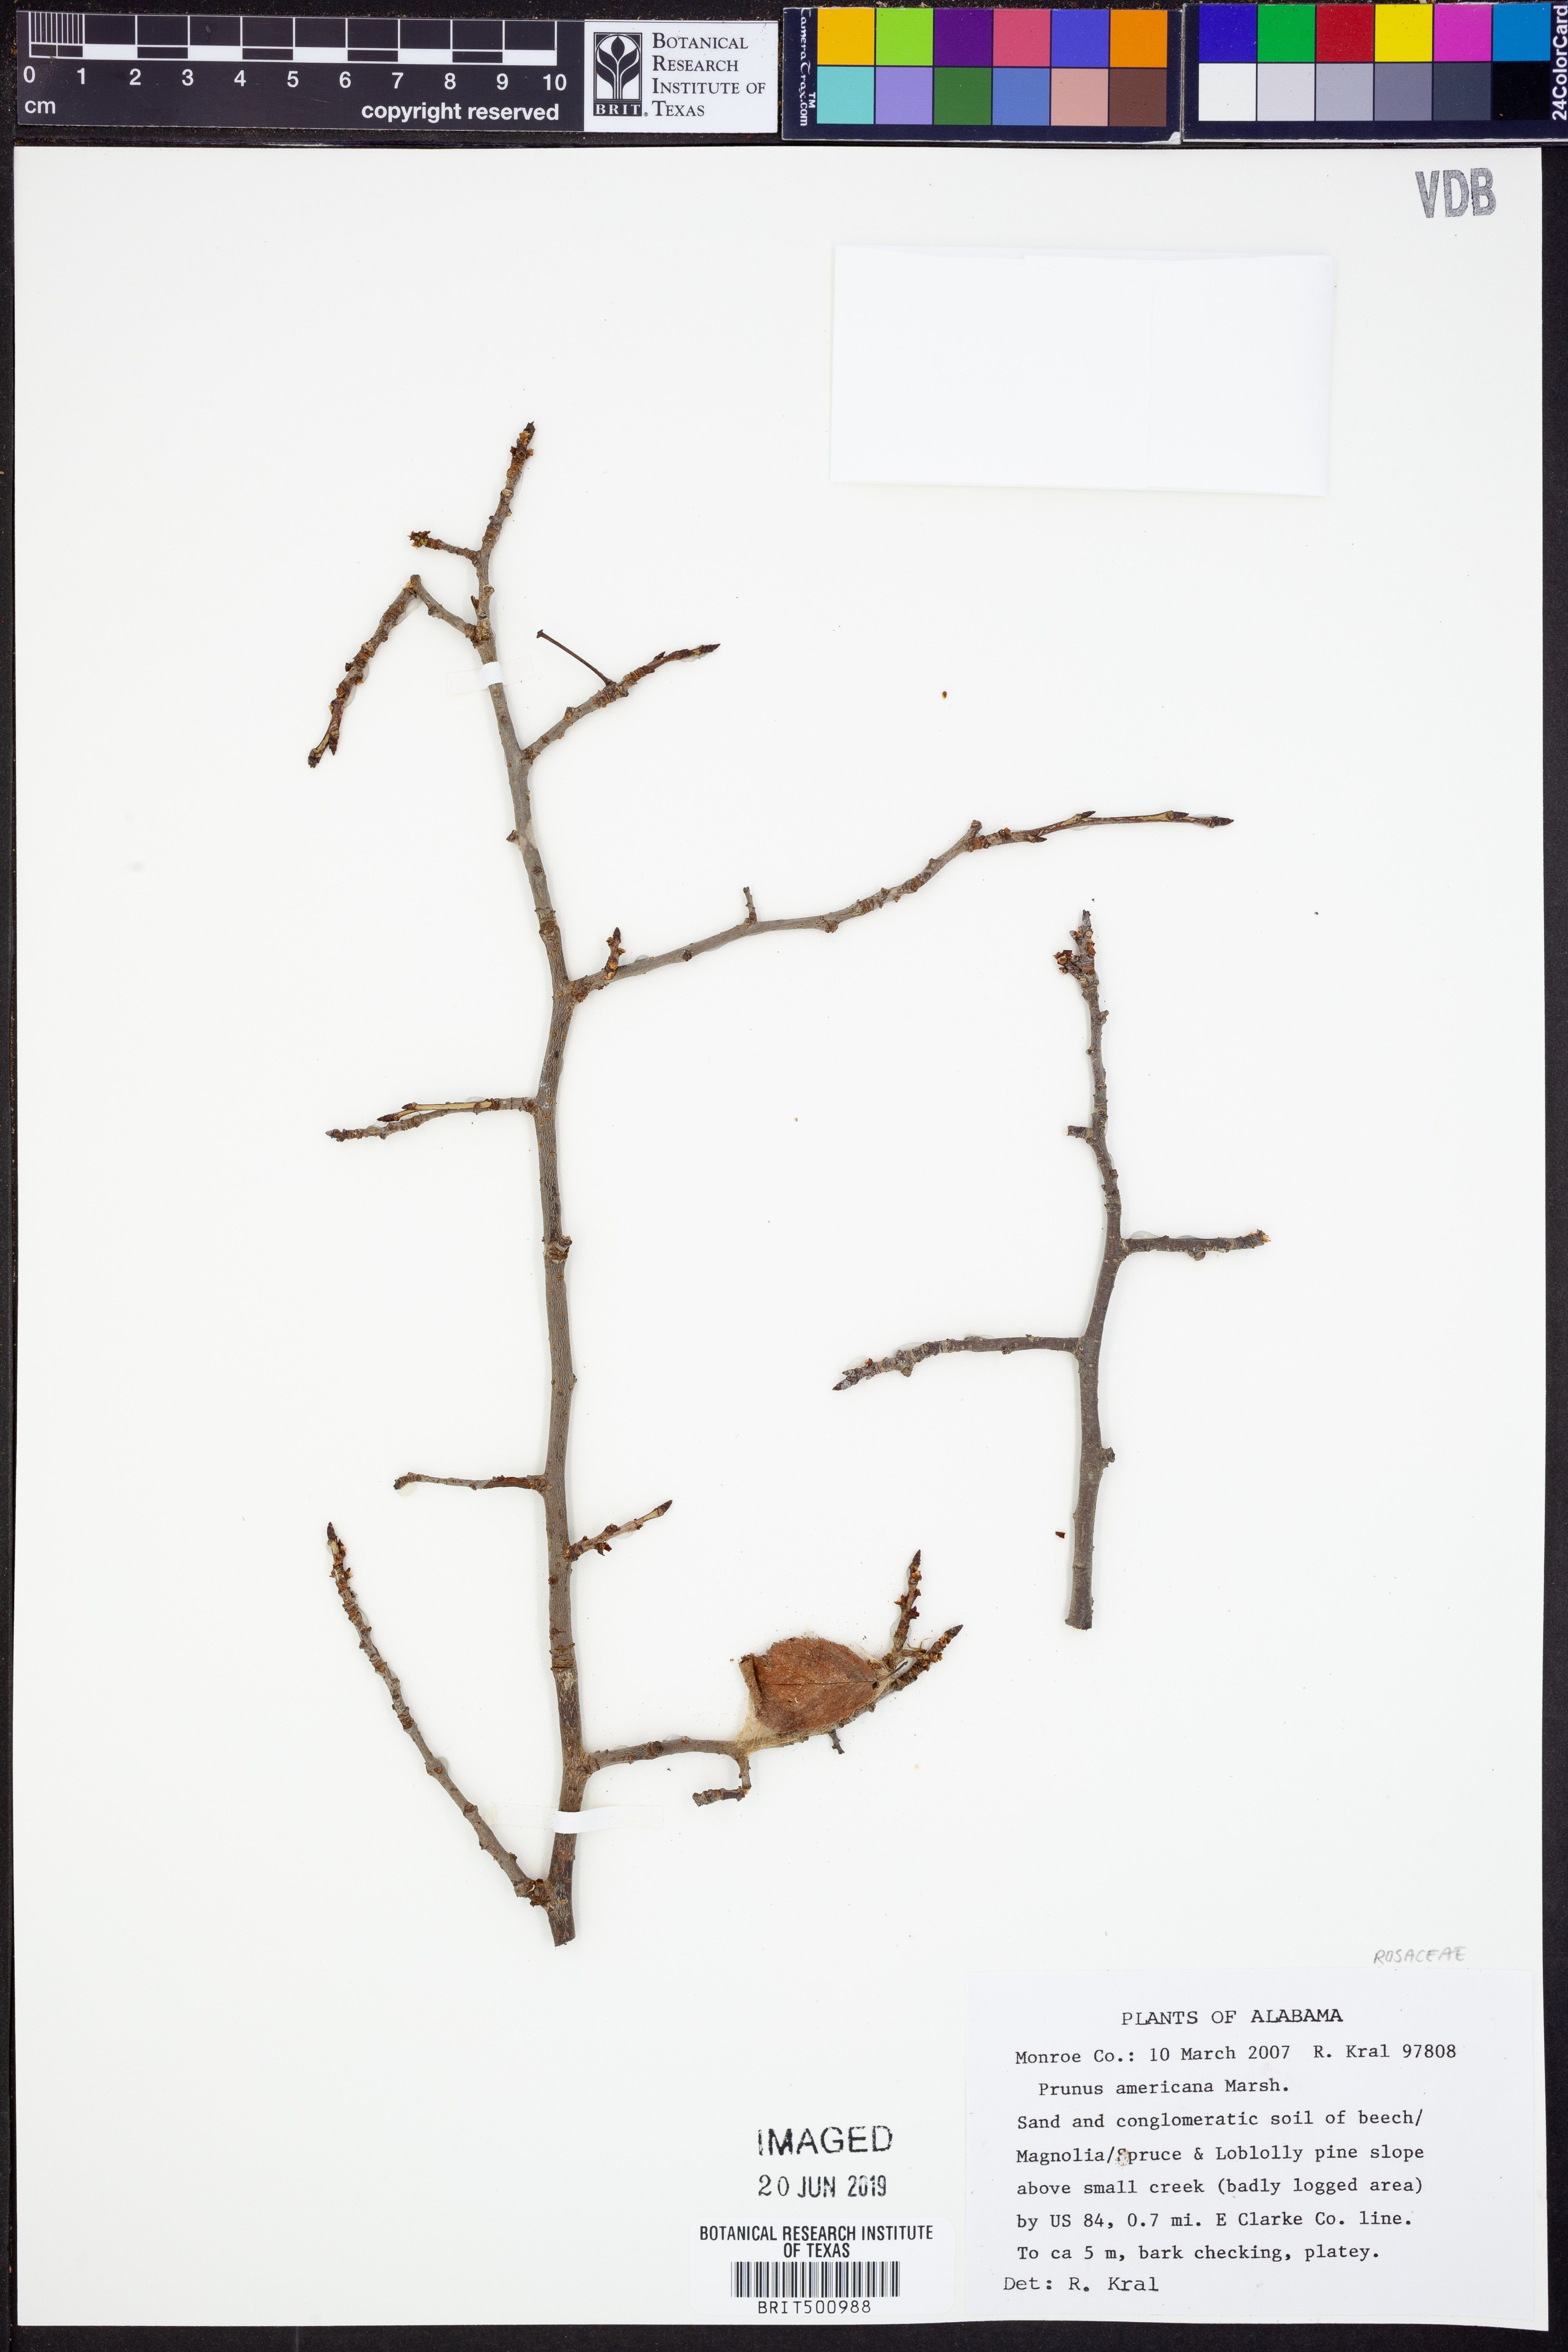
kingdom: Plantae
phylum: Tracheophyta
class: Magnoliopsida
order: Rosales
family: Rosaceae
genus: Prunus
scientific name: Prunus americana
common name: American plum
